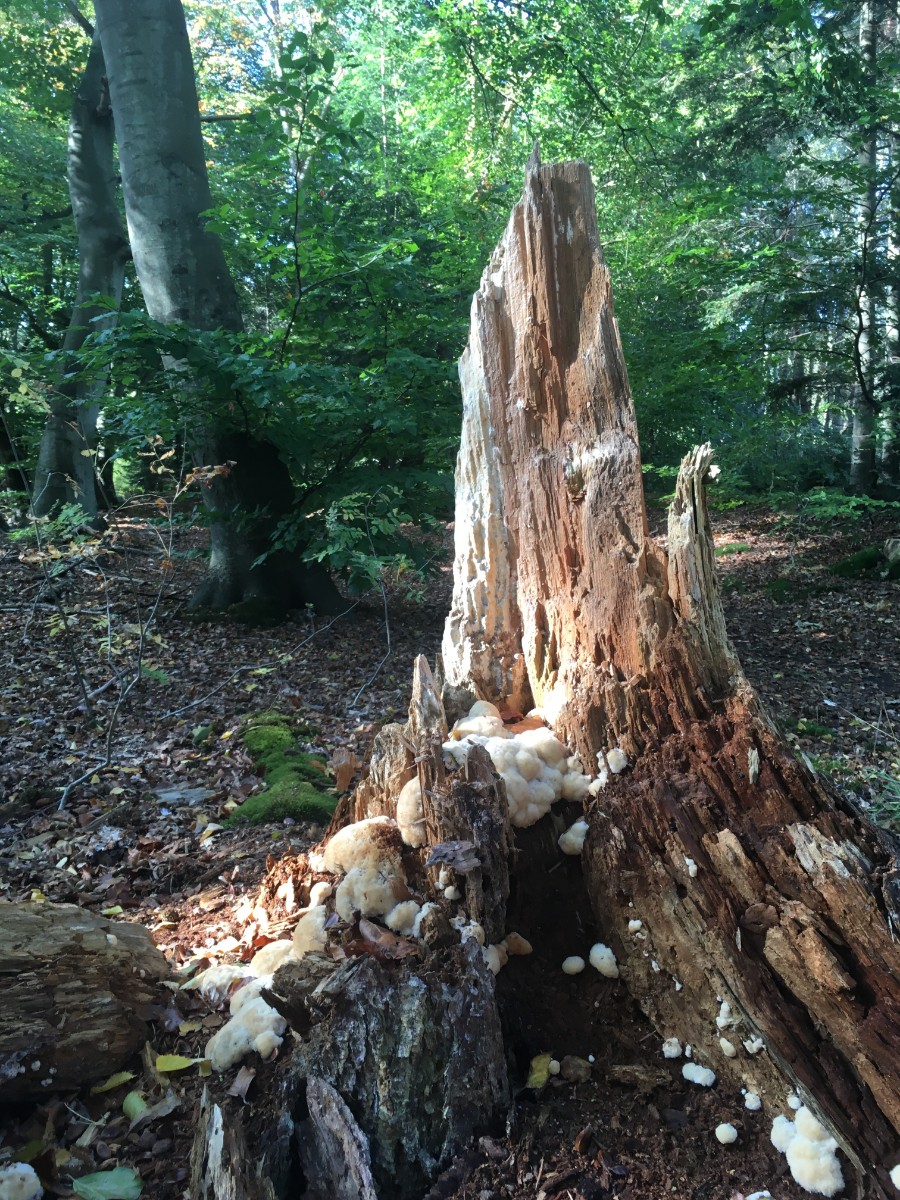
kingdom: Fungi
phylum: Basidiomycota
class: Agaricomycetes
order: Polyporales
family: Dacryobolaceae
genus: Postia
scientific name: Postia ptychogaster
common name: støvende kødporesvamp
